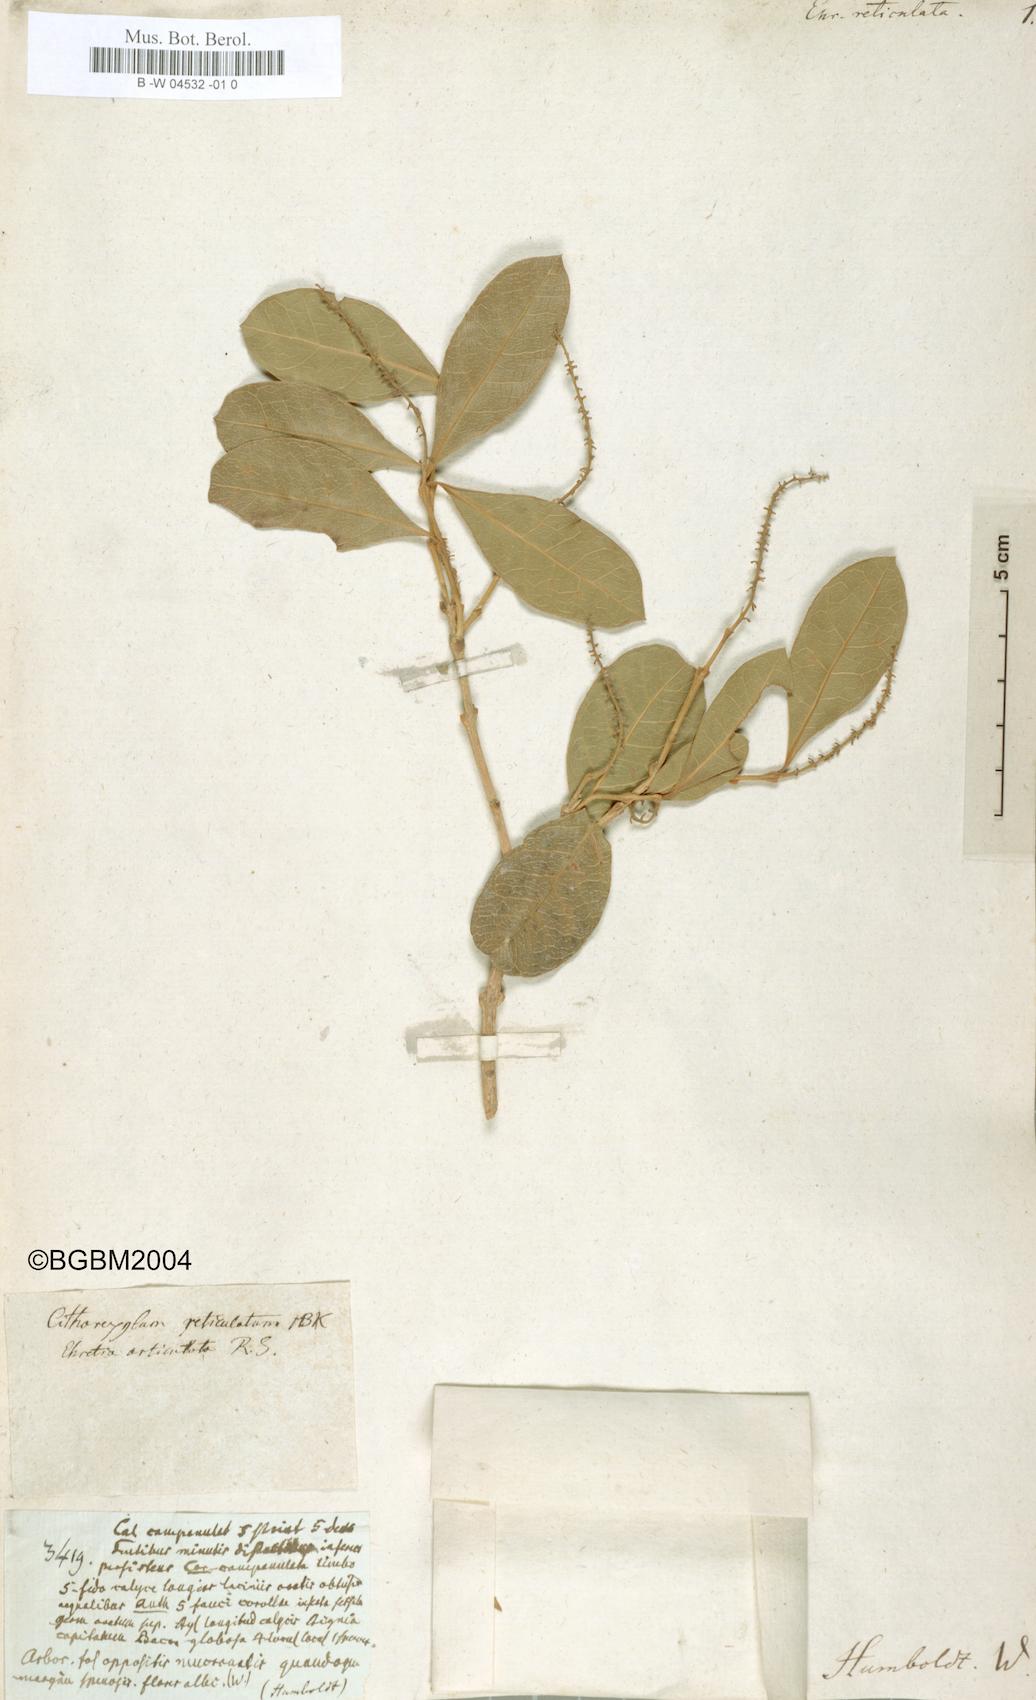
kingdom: Plantae
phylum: Tracheophyta
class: Magnoliopsida
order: Lamiales
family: Verbenaceae
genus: Citharexylum
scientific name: Citharexylum reticulatum
